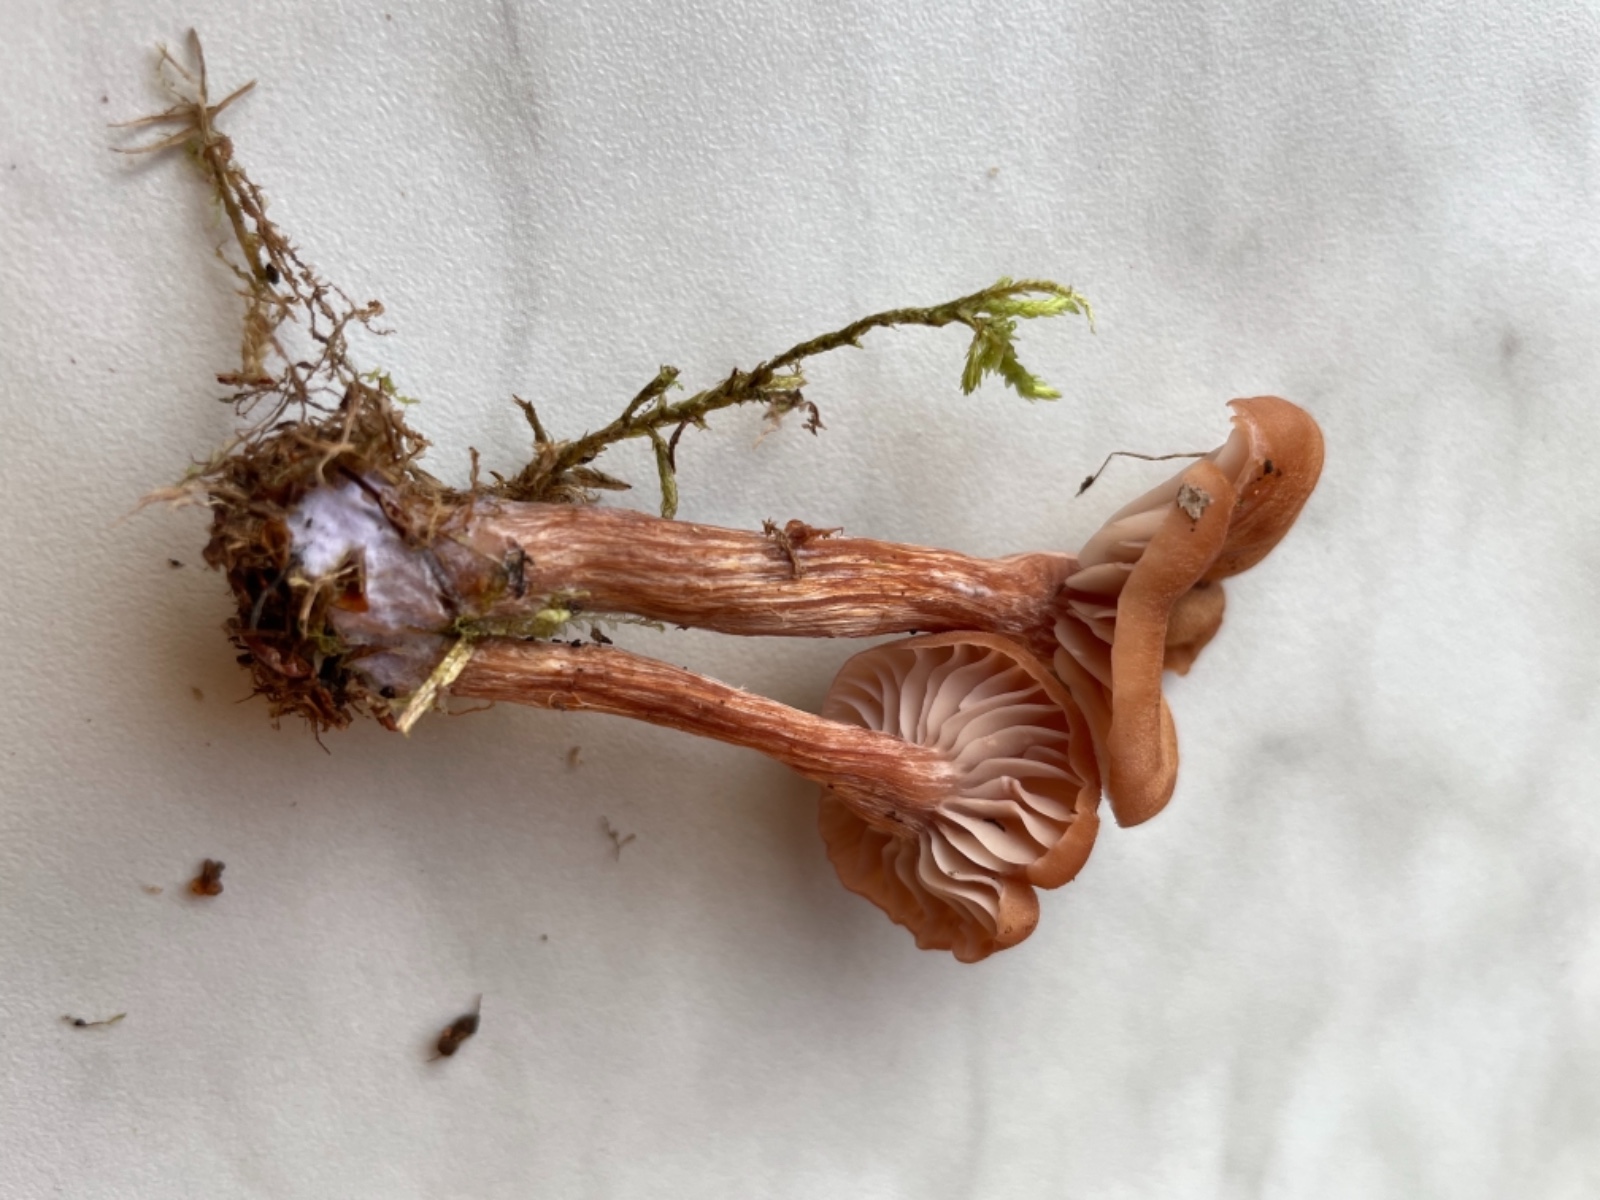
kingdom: Fungi
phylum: Basidiomycota
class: Agaricomycetes
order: Agaricales
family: Hydnangiaceae
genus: Laccaria
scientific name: Laccaria bicolor
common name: tvefarvet ametysthat
